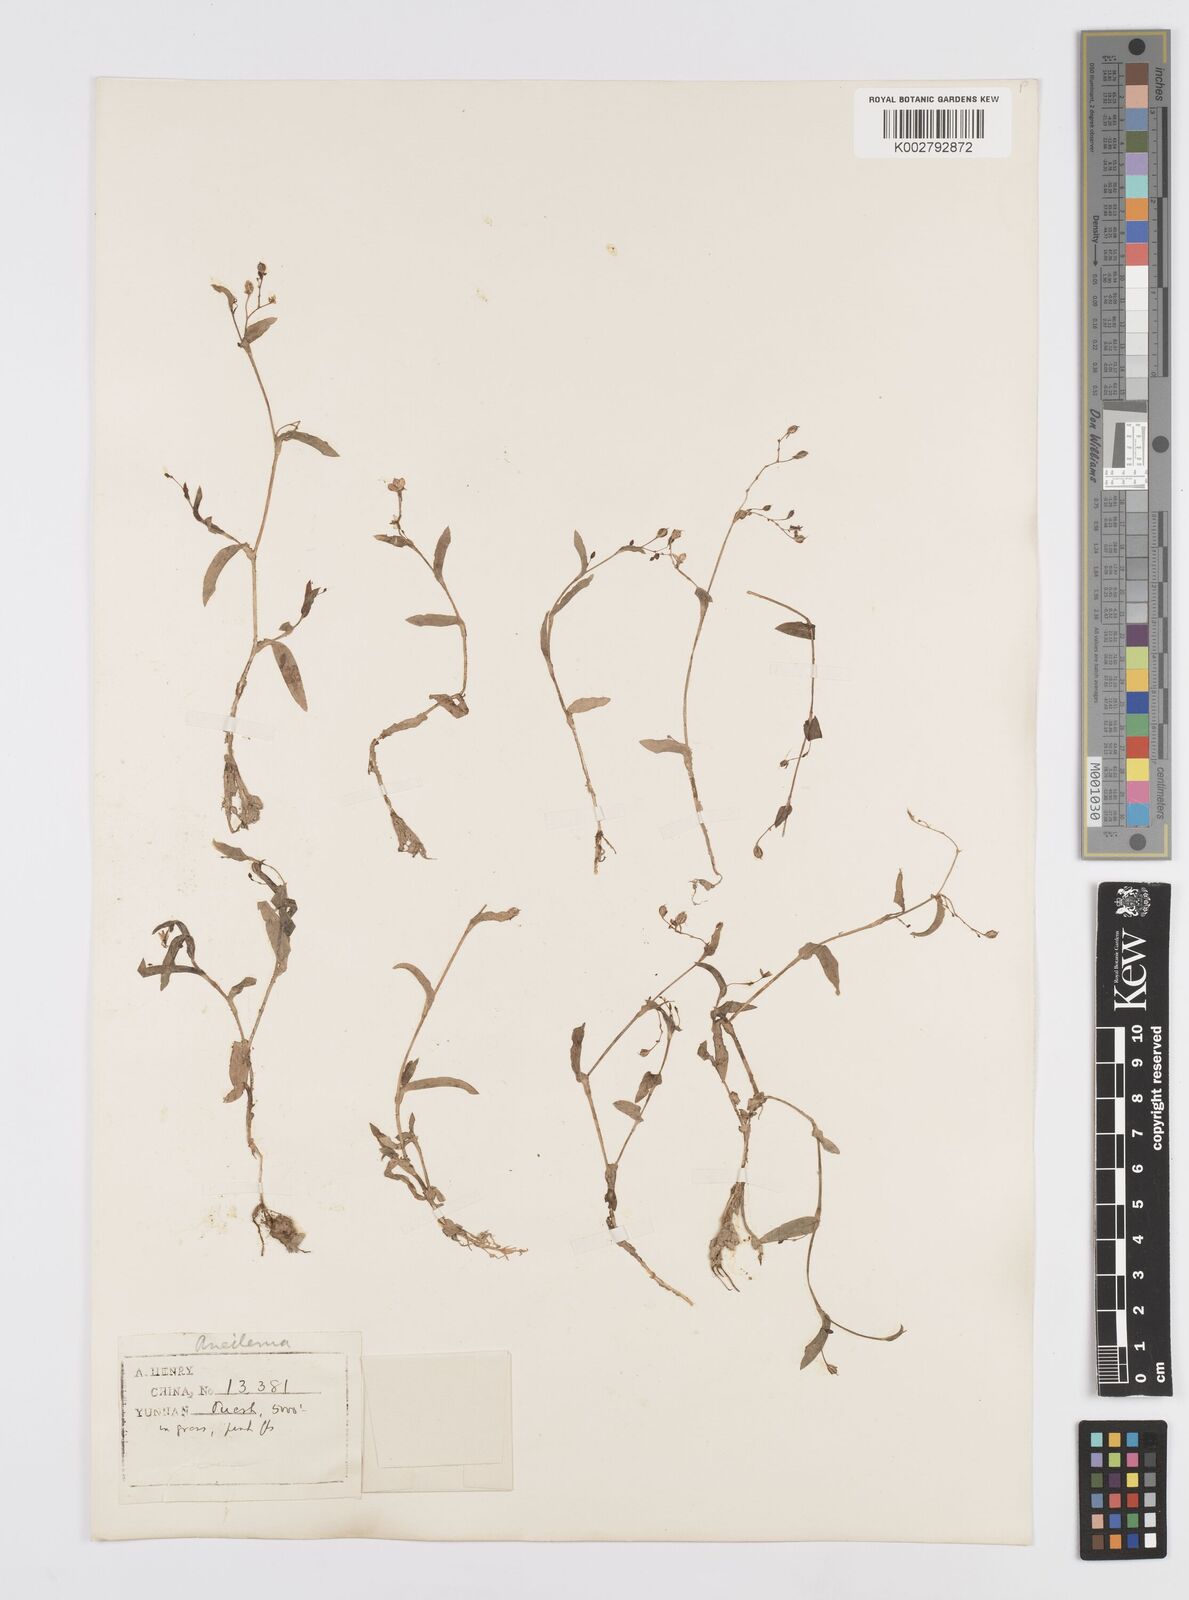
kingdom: Plantae
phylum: Tracheophyta
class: Liliopsida
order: Commelinales
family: Commelinaceae
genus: Murdannia
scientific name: Murdannia
